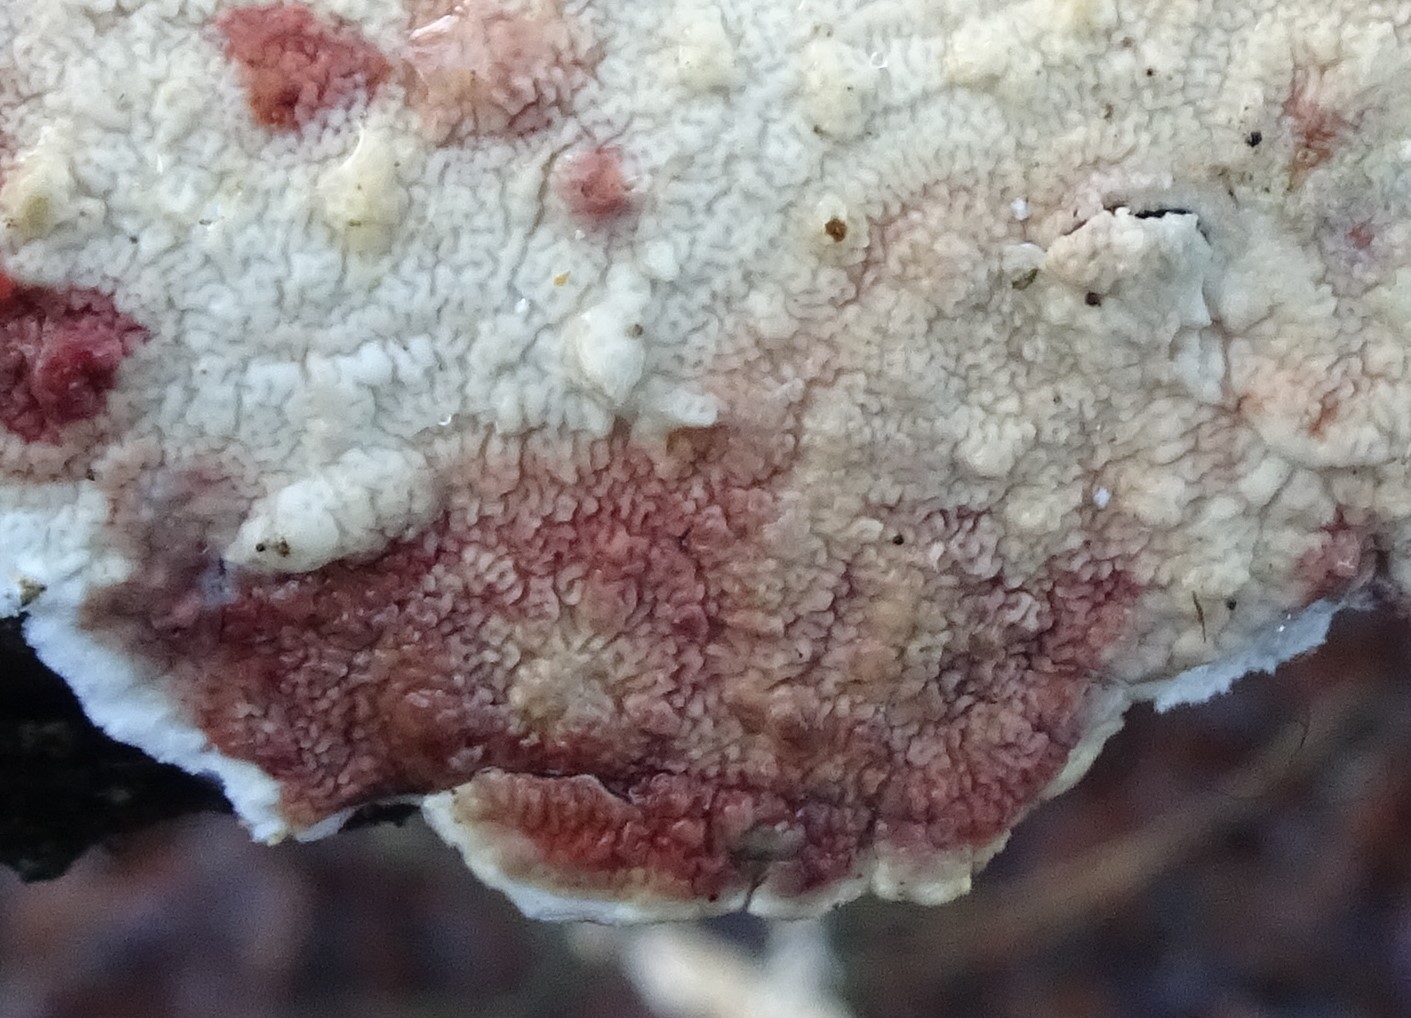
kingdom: Fungi
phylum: Basidiomycota
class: Agaricomycetes
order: Polyporales
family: Irpicaceae
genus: Byssomerulius
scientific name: Byssomerulius corium
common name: læder-åresvamp
